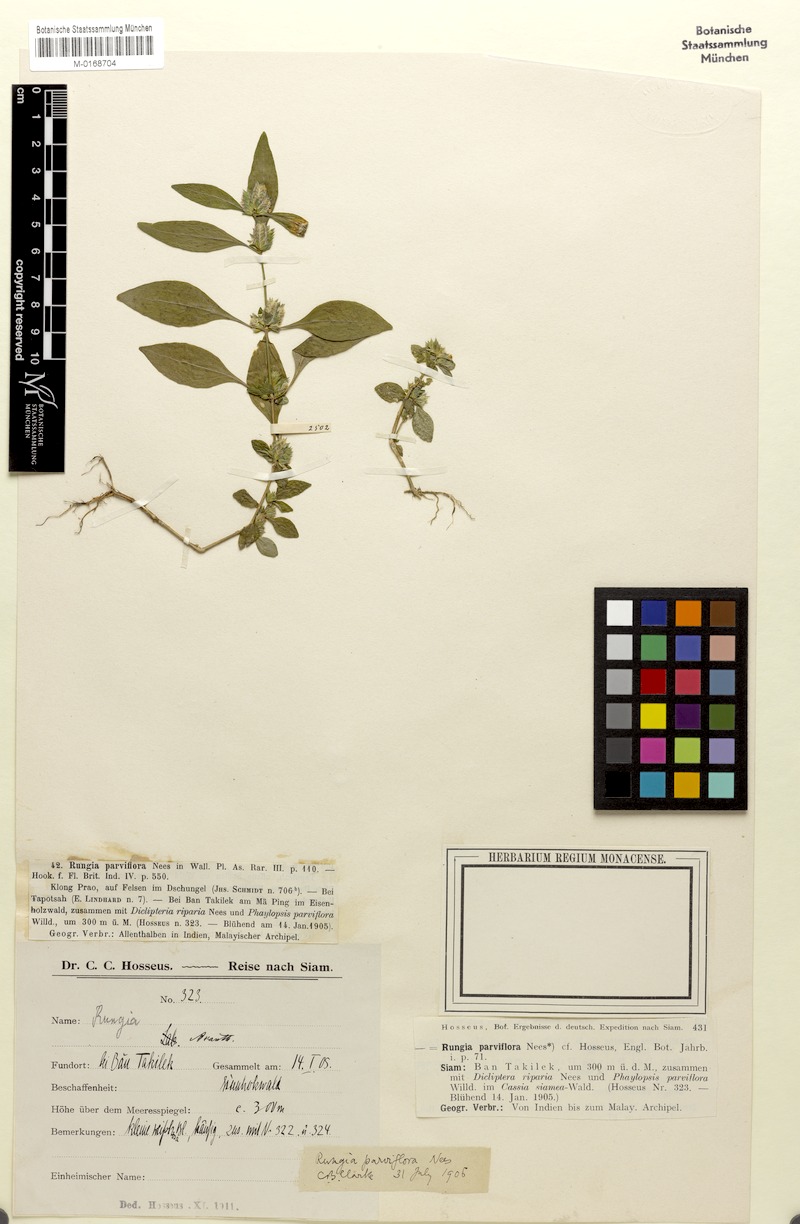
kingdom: Plantae
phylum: Tracheophyta
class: Magnoliopsida
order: Lamiales
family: Acanthaceae
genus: Rungia
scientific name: Rungia parviflora
